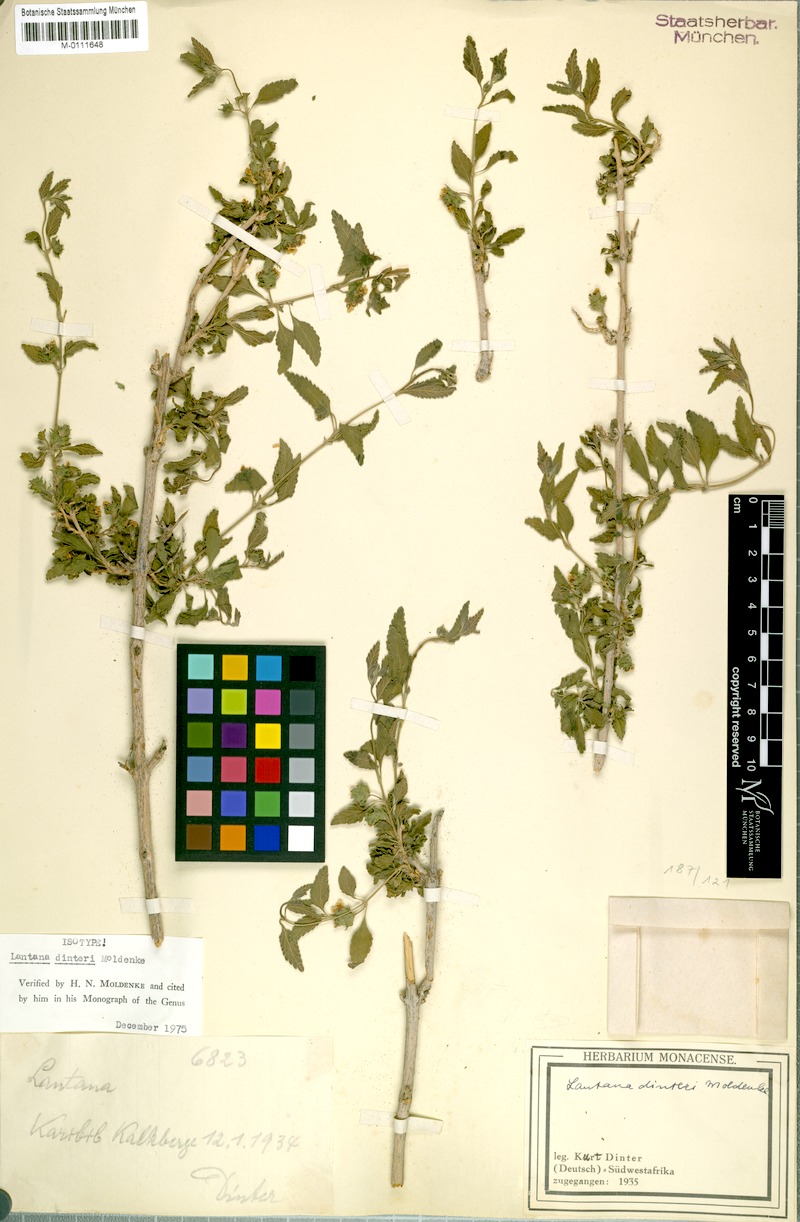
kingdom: Plantae
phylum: Tracheophyta
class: Magnoliopsida
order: Lamiales
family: Verbenaceae
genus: Lantana
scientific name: Lantana dinteri
